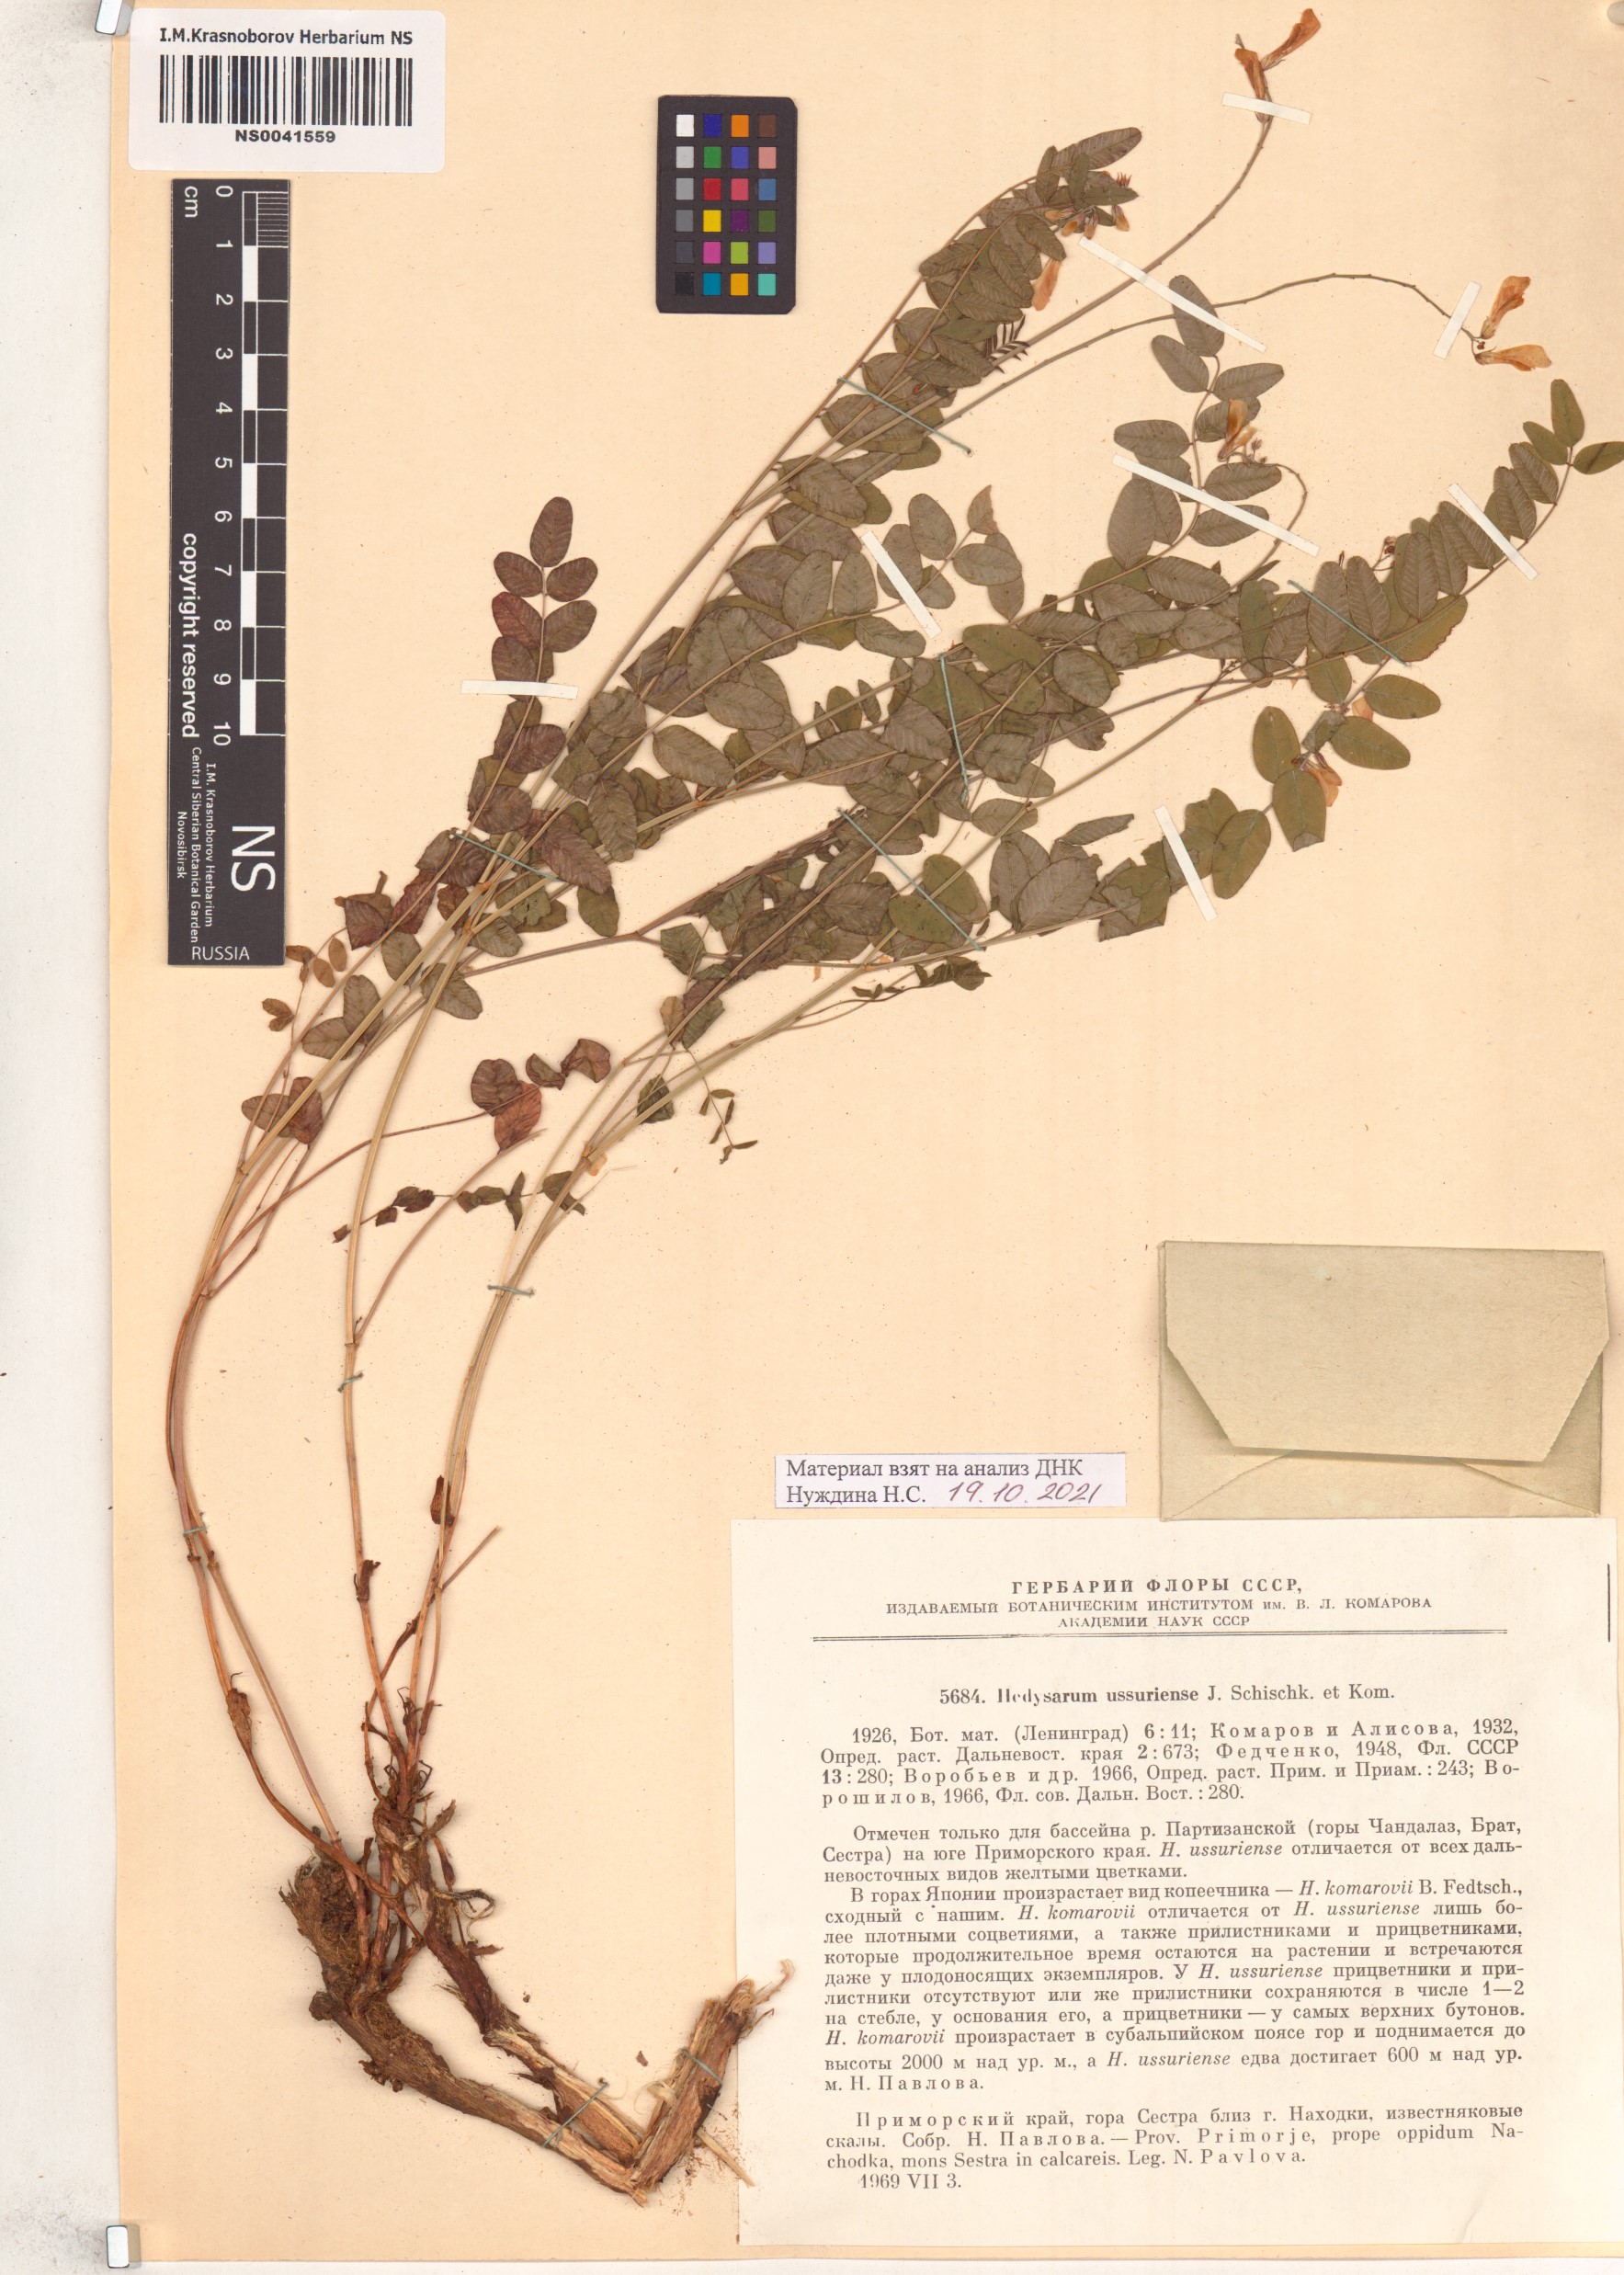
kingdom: Plantae
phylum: Tracheophyta
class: Magnoliopsida
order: Fabales
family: Fabaceae
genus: Hedysarum
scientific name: Hedysarum vicioides
